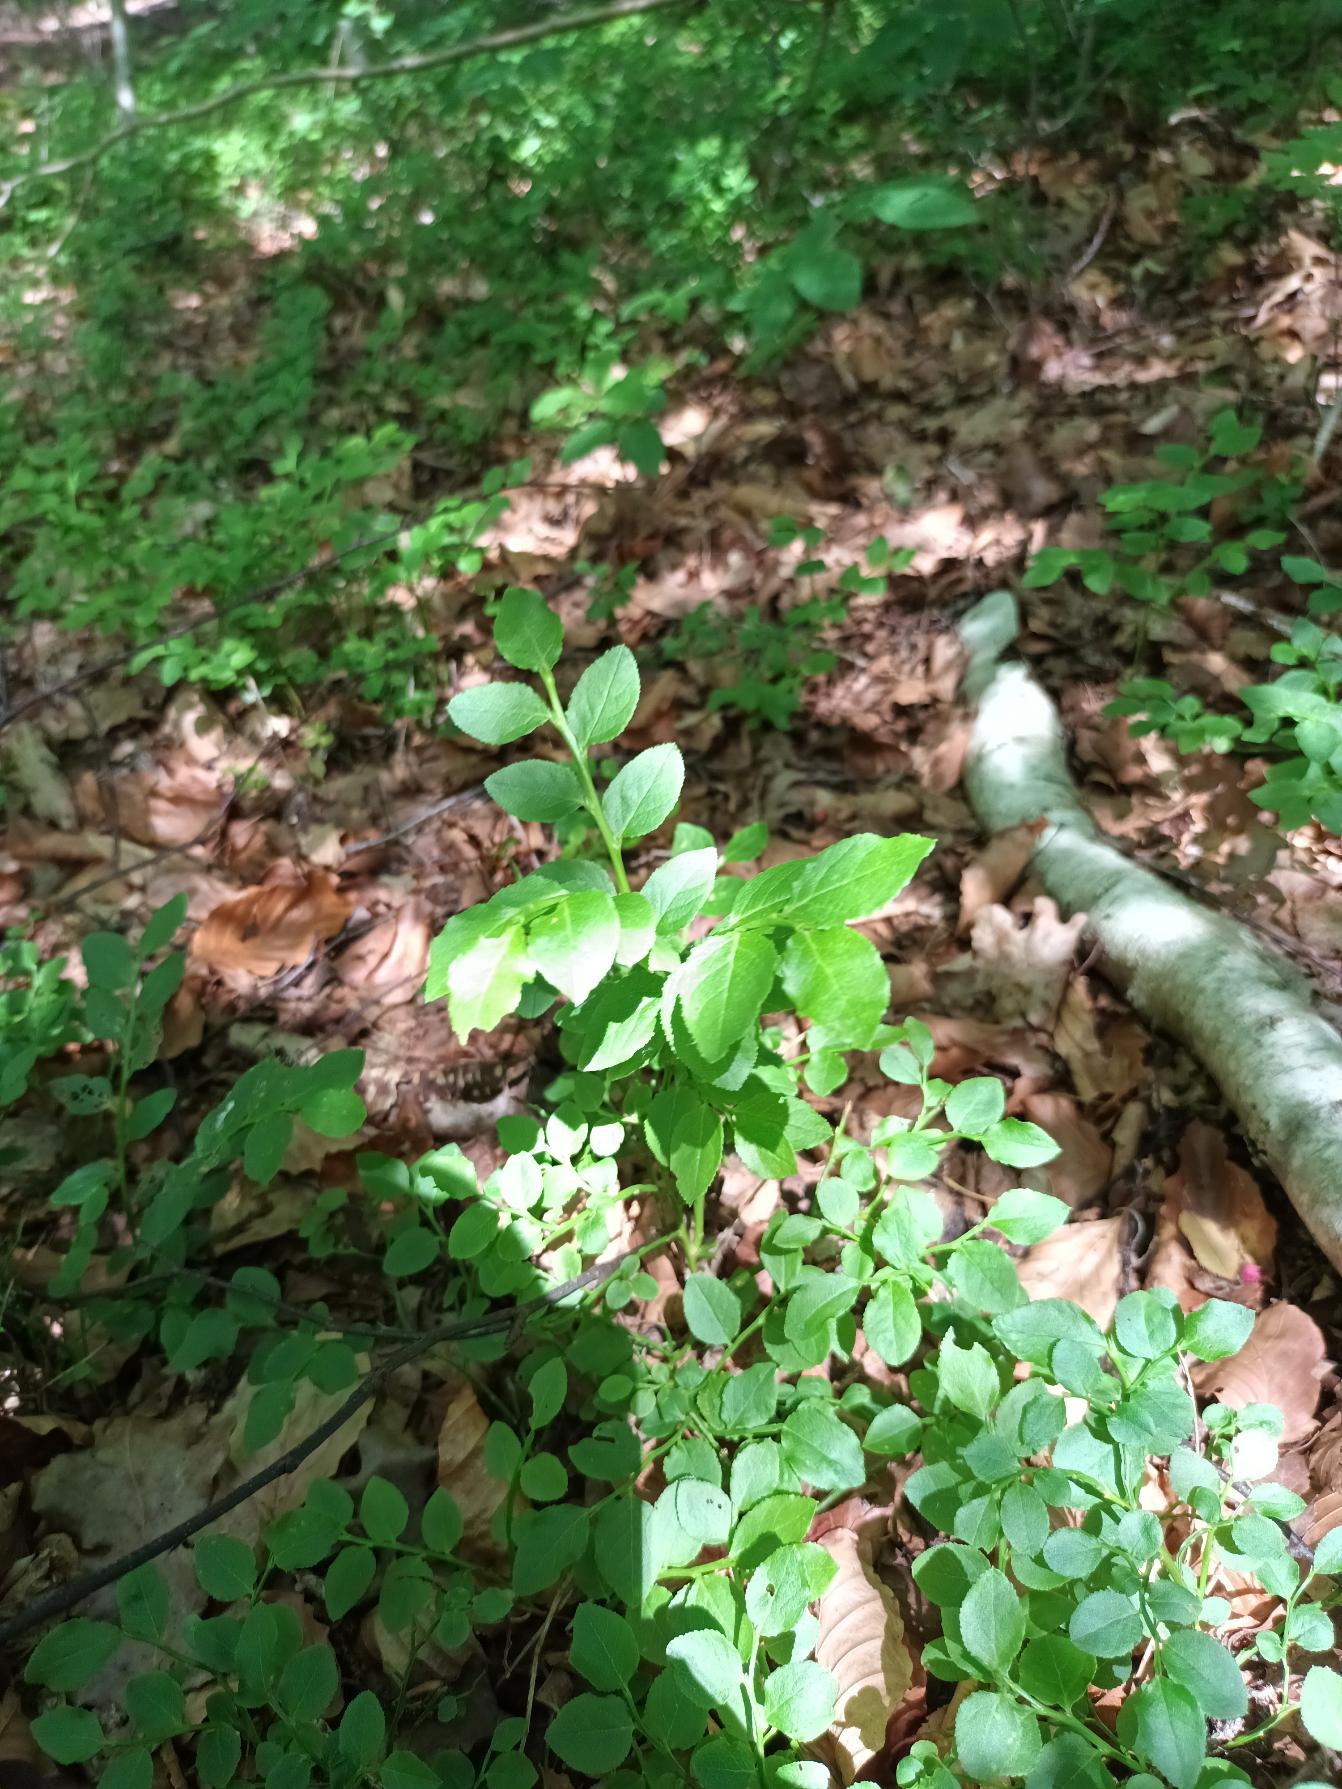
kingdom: Plantae
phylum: Tracheophyta
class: Magnoliopsida
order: Ericales
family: Ericaceae
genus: Vaccinium
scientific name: Vaccinium myrtillus
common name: Blåbær
